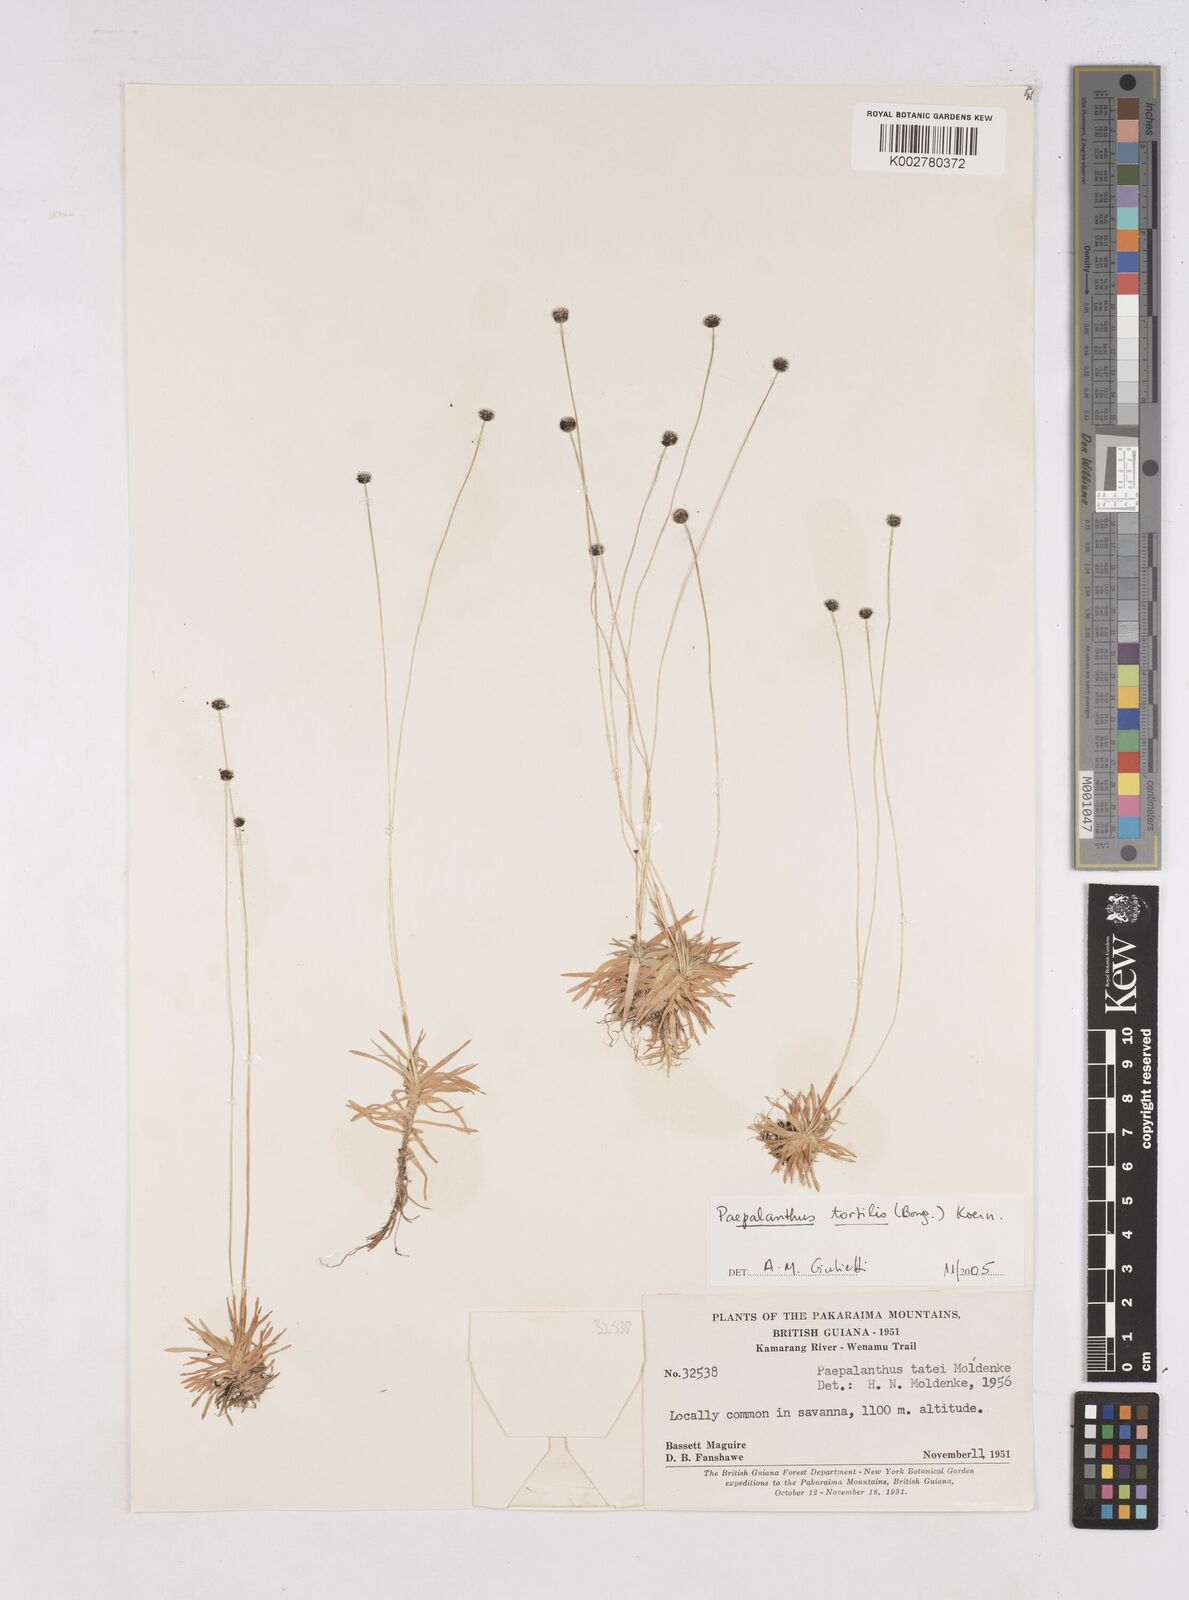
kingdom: Plantae
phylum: Tracheophyta
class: Liliopsida
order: Poales
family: Eriocaulaceae
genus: Paepalanthus
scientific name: Paepalanthus tortilis
